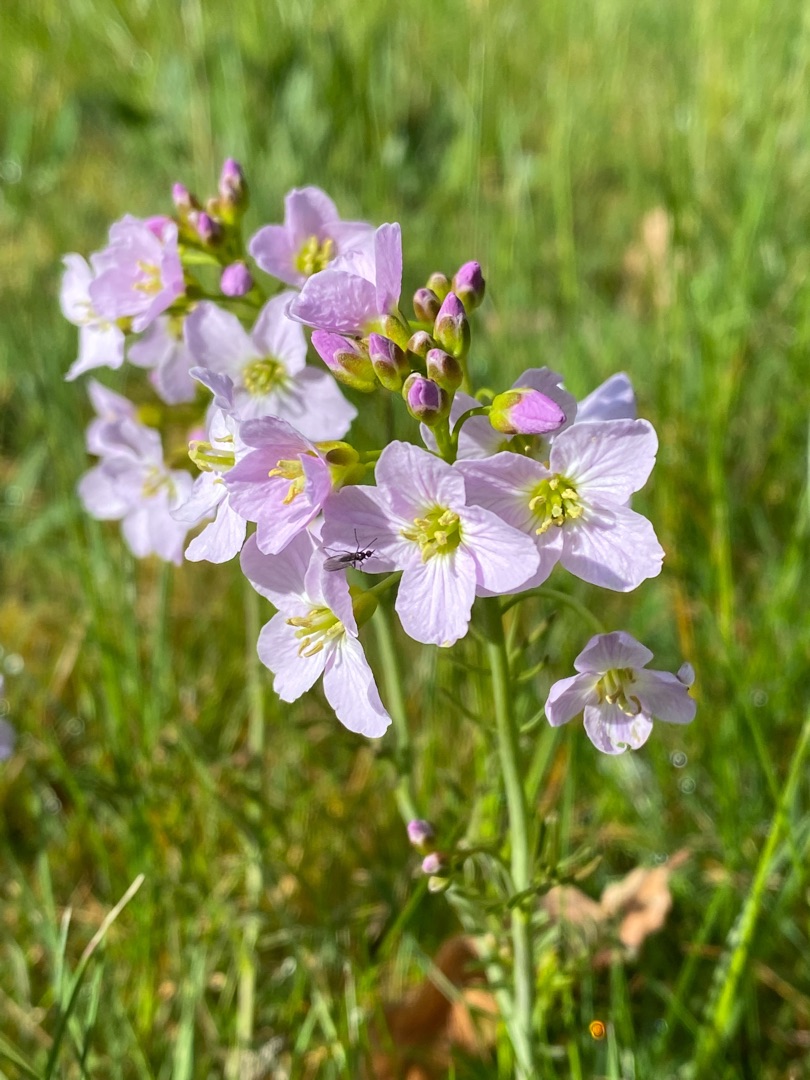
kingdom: Plantae
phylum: Tracheophyta
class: Magnoliopsida
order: Brassicales
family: Brassicaceae
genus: Cardamine
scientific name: Cardamine pratensis
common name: Engkarse
